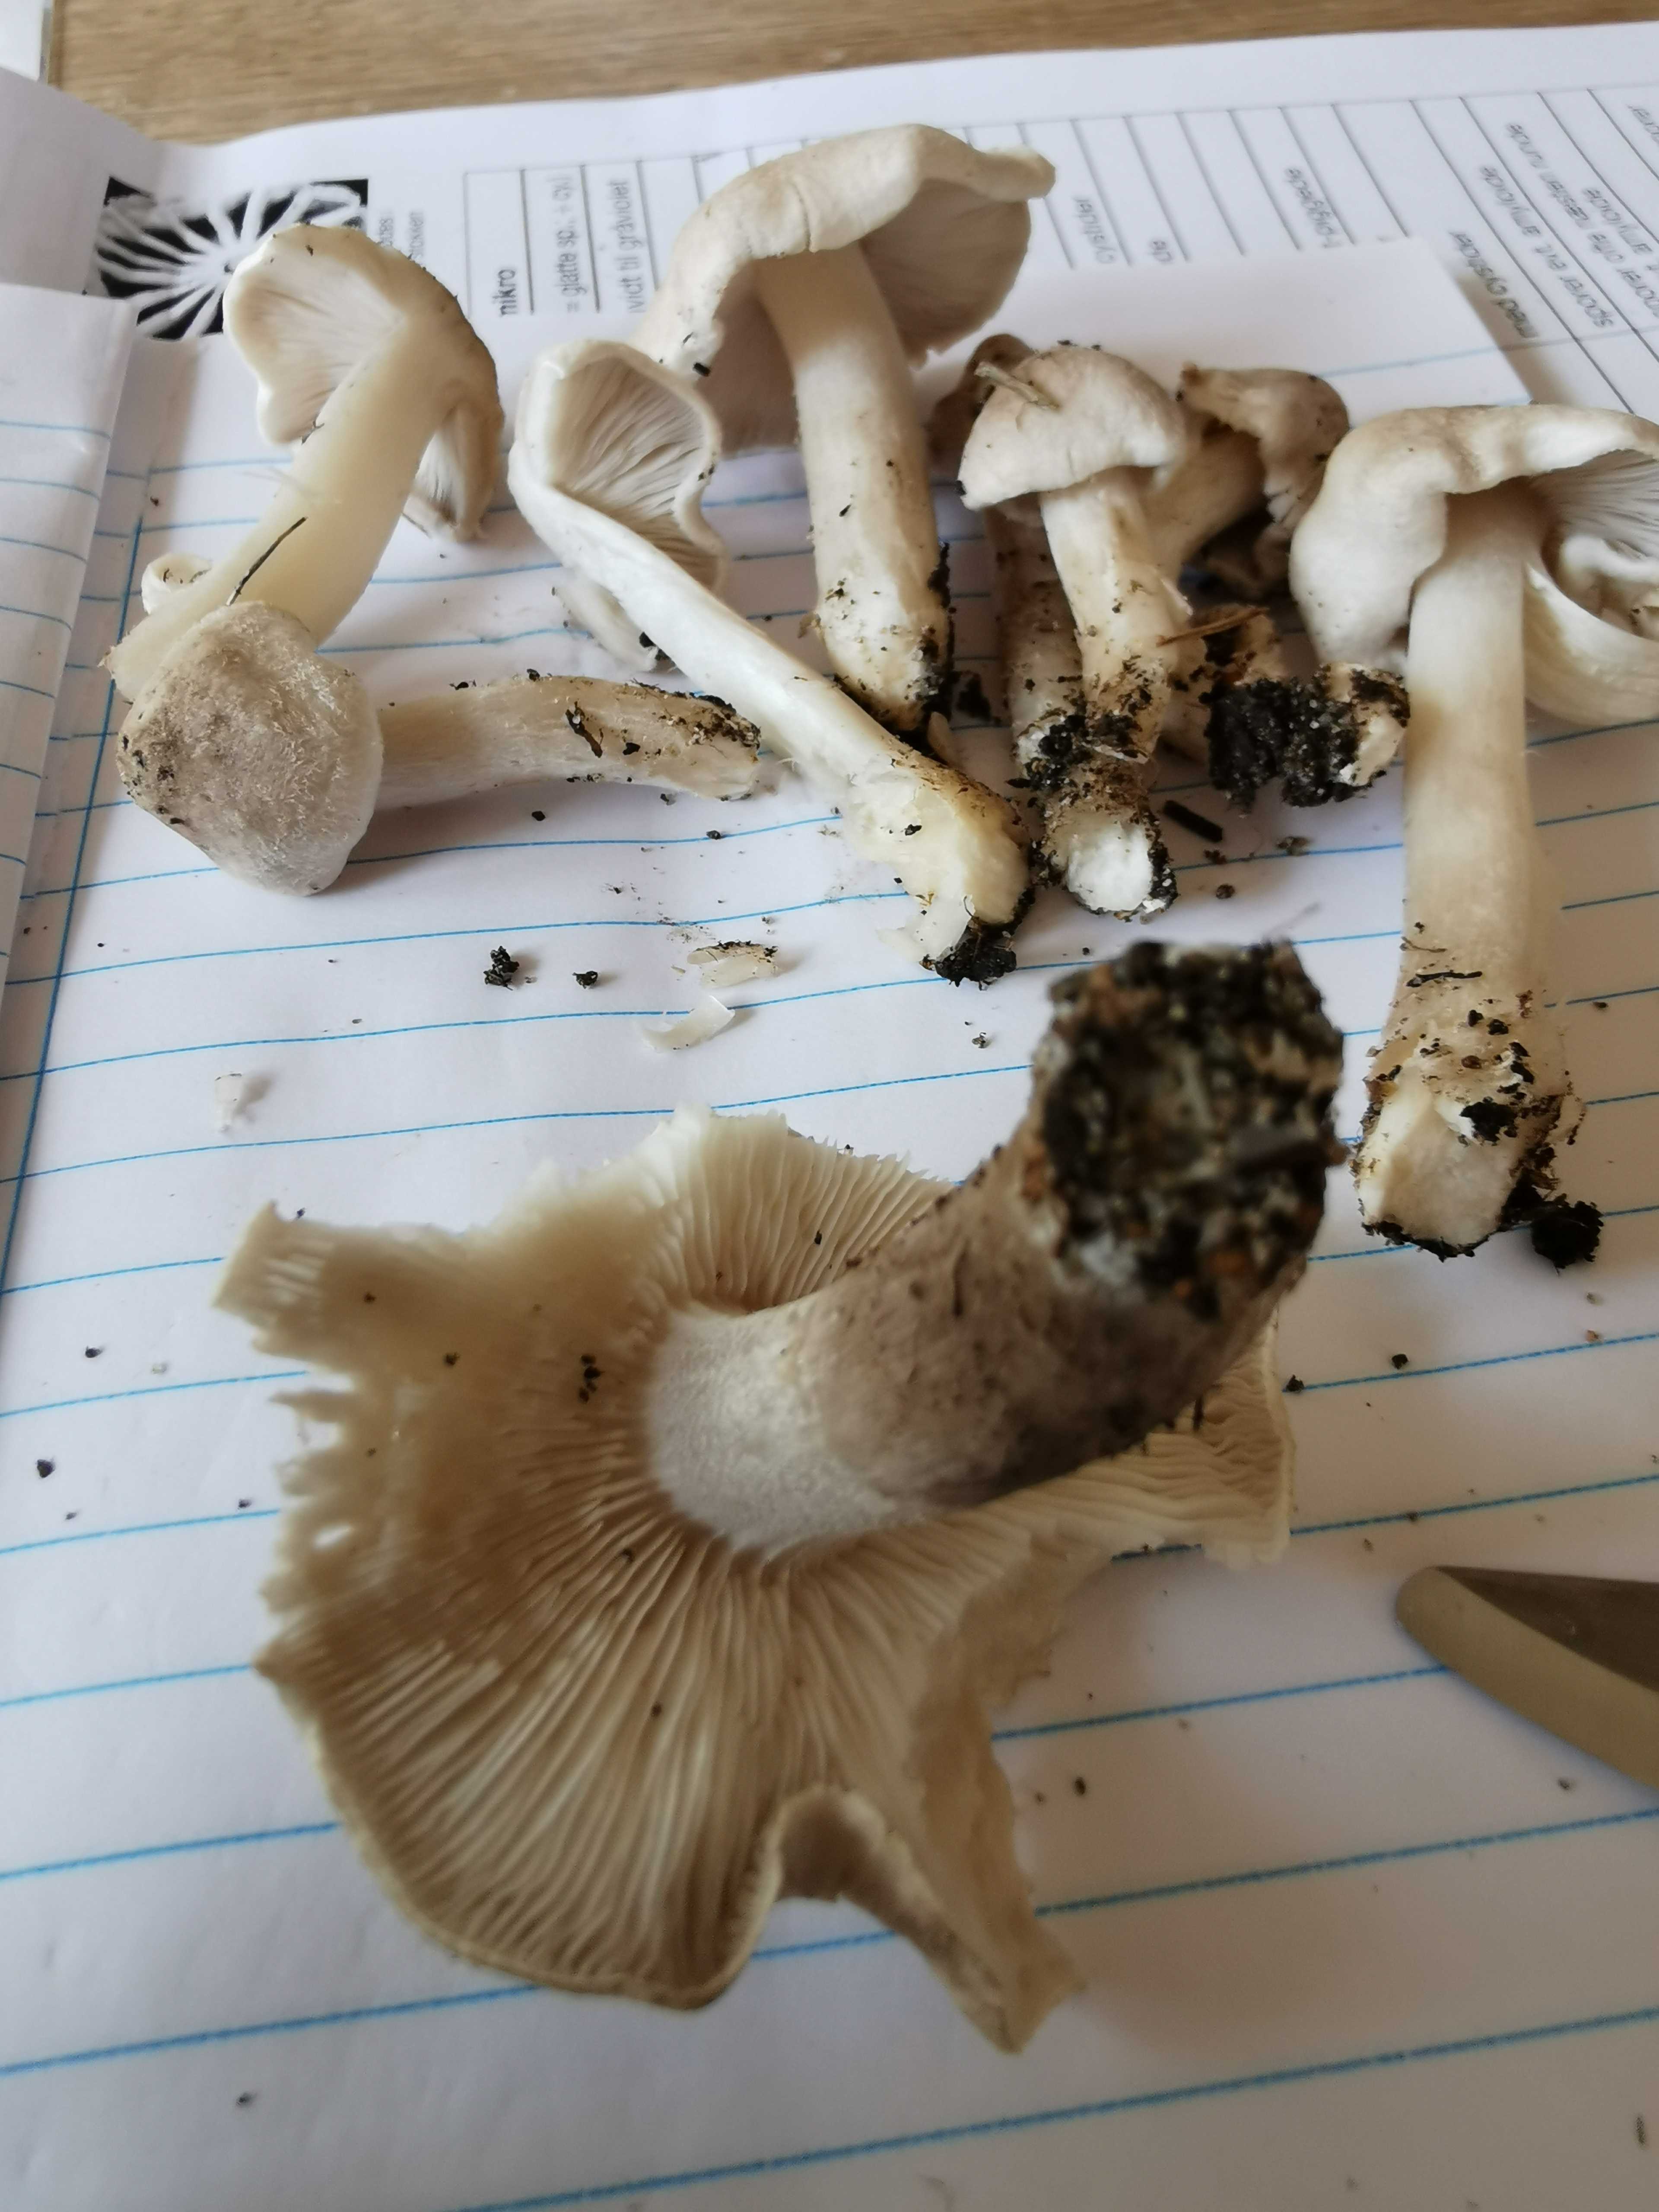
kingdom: Fungi
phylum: Basidiomycota
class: Agaricomycetes
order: Agaricales
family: Tricholomataceae
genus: Tricholoma
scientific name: Tricholoma argyraceum
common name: spids ridderhat
